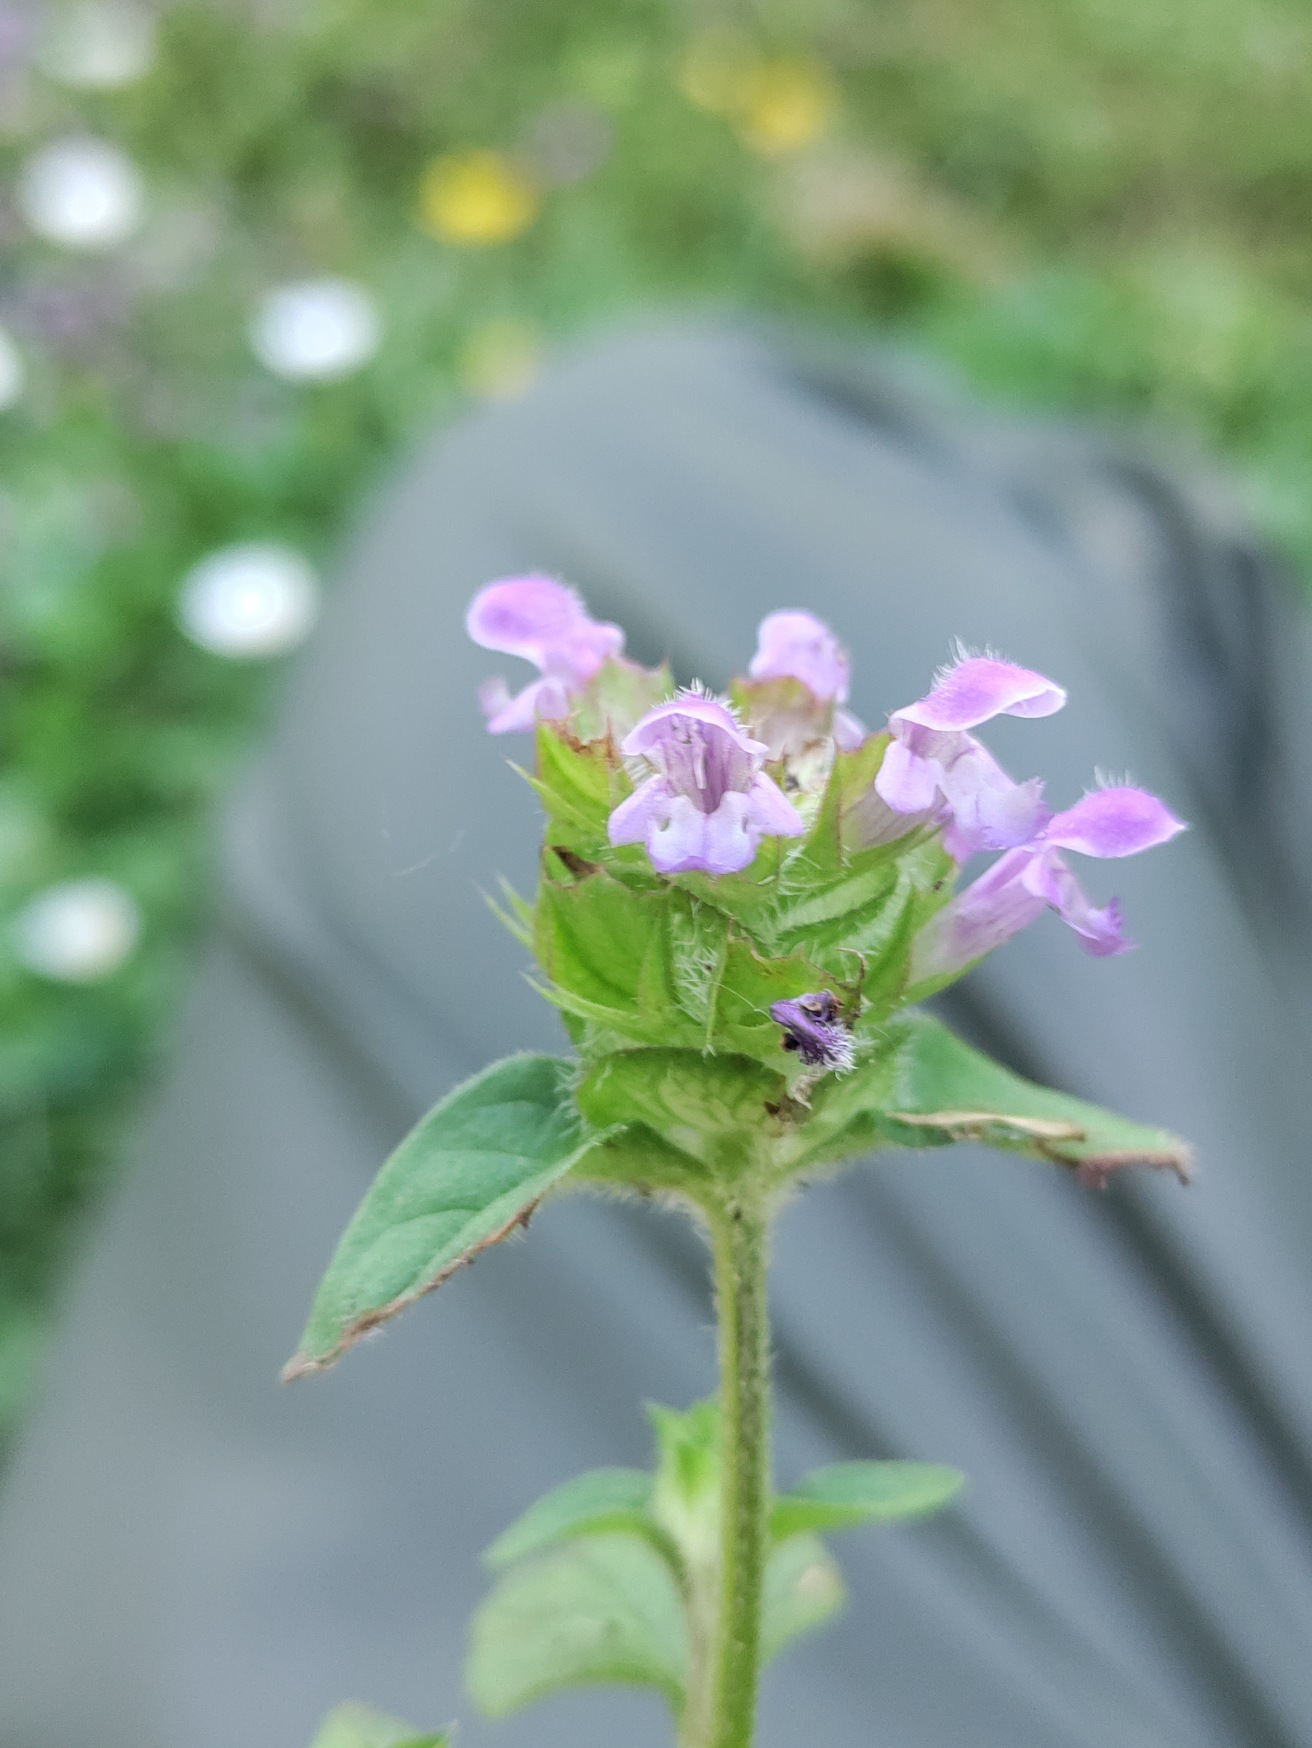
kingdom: Plantae
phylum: Tracheophyta
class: Magnoliopsida
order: Lamiales
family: Lamiaceae
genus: Prunella
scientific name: Prunella vulgaris
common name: Almindelig brunelle
